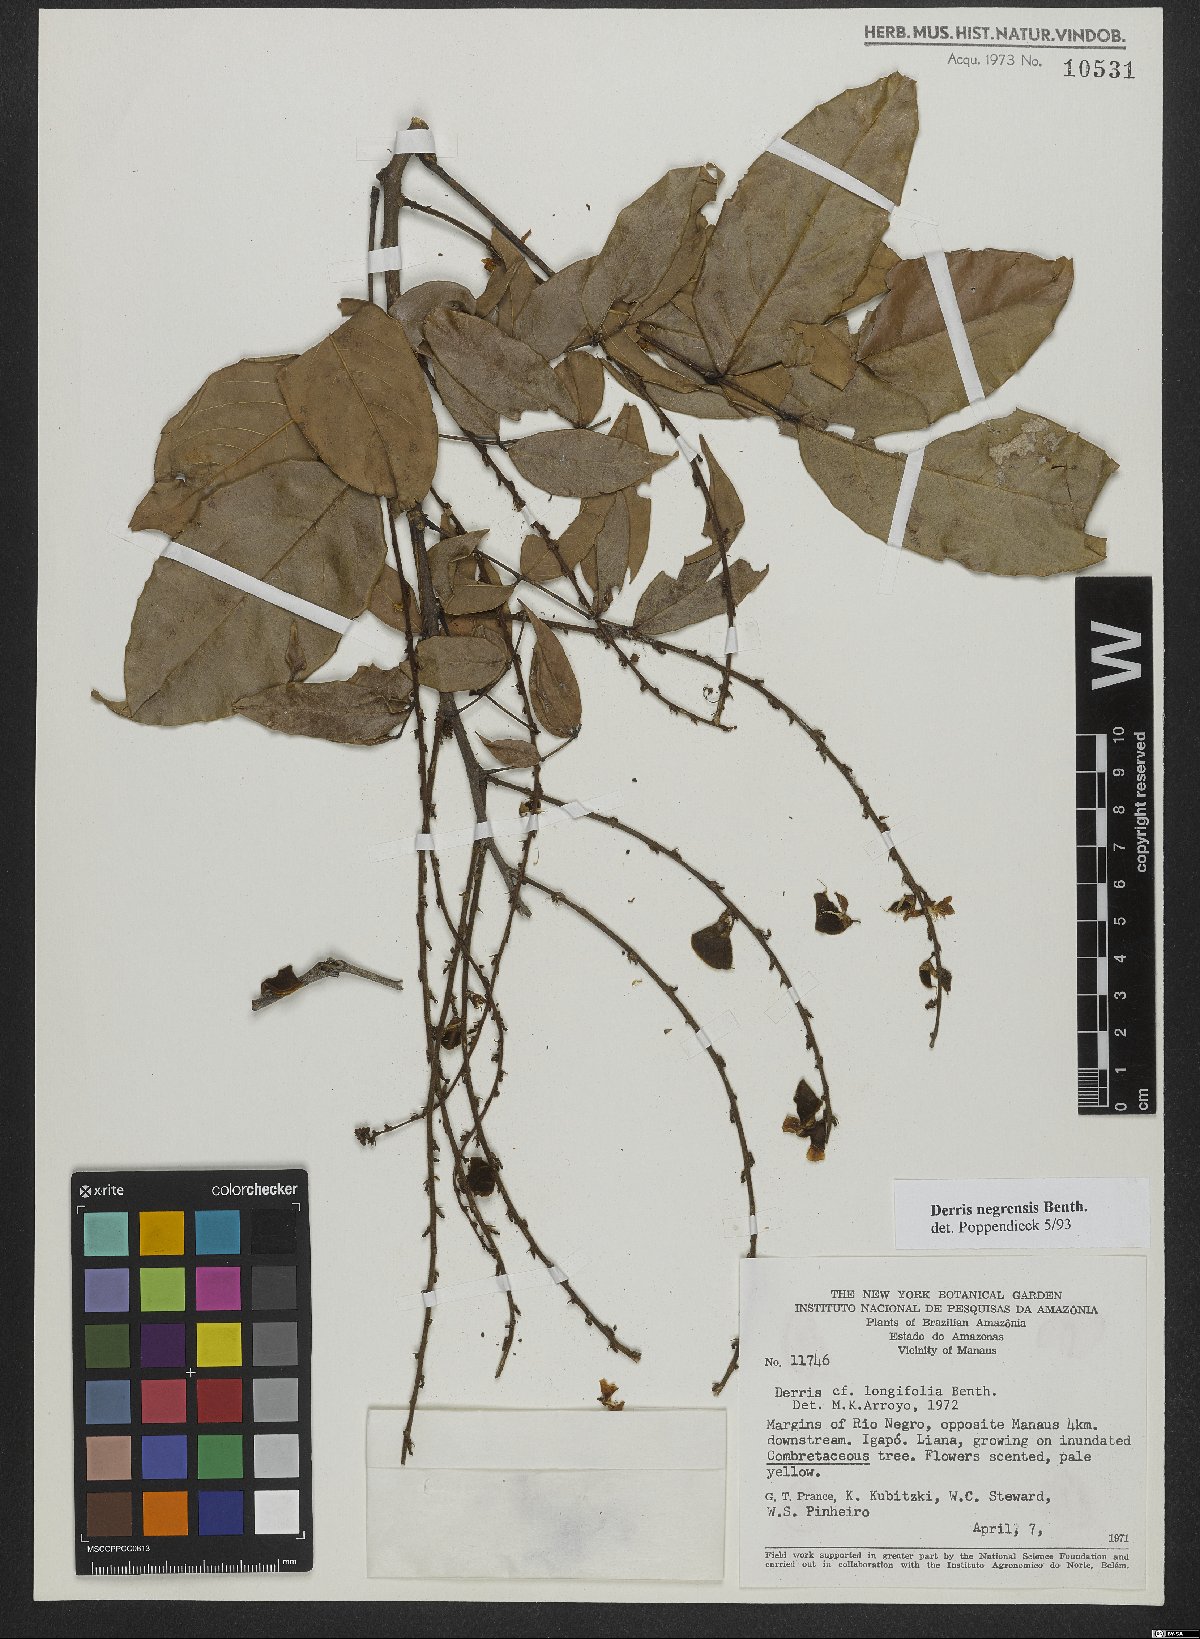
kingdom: Plantae
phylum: Tracheophyta
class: Magnoliopsida
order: Fabales
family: Fabaceae
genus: Deguelia
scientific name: Deguelia negrensis
